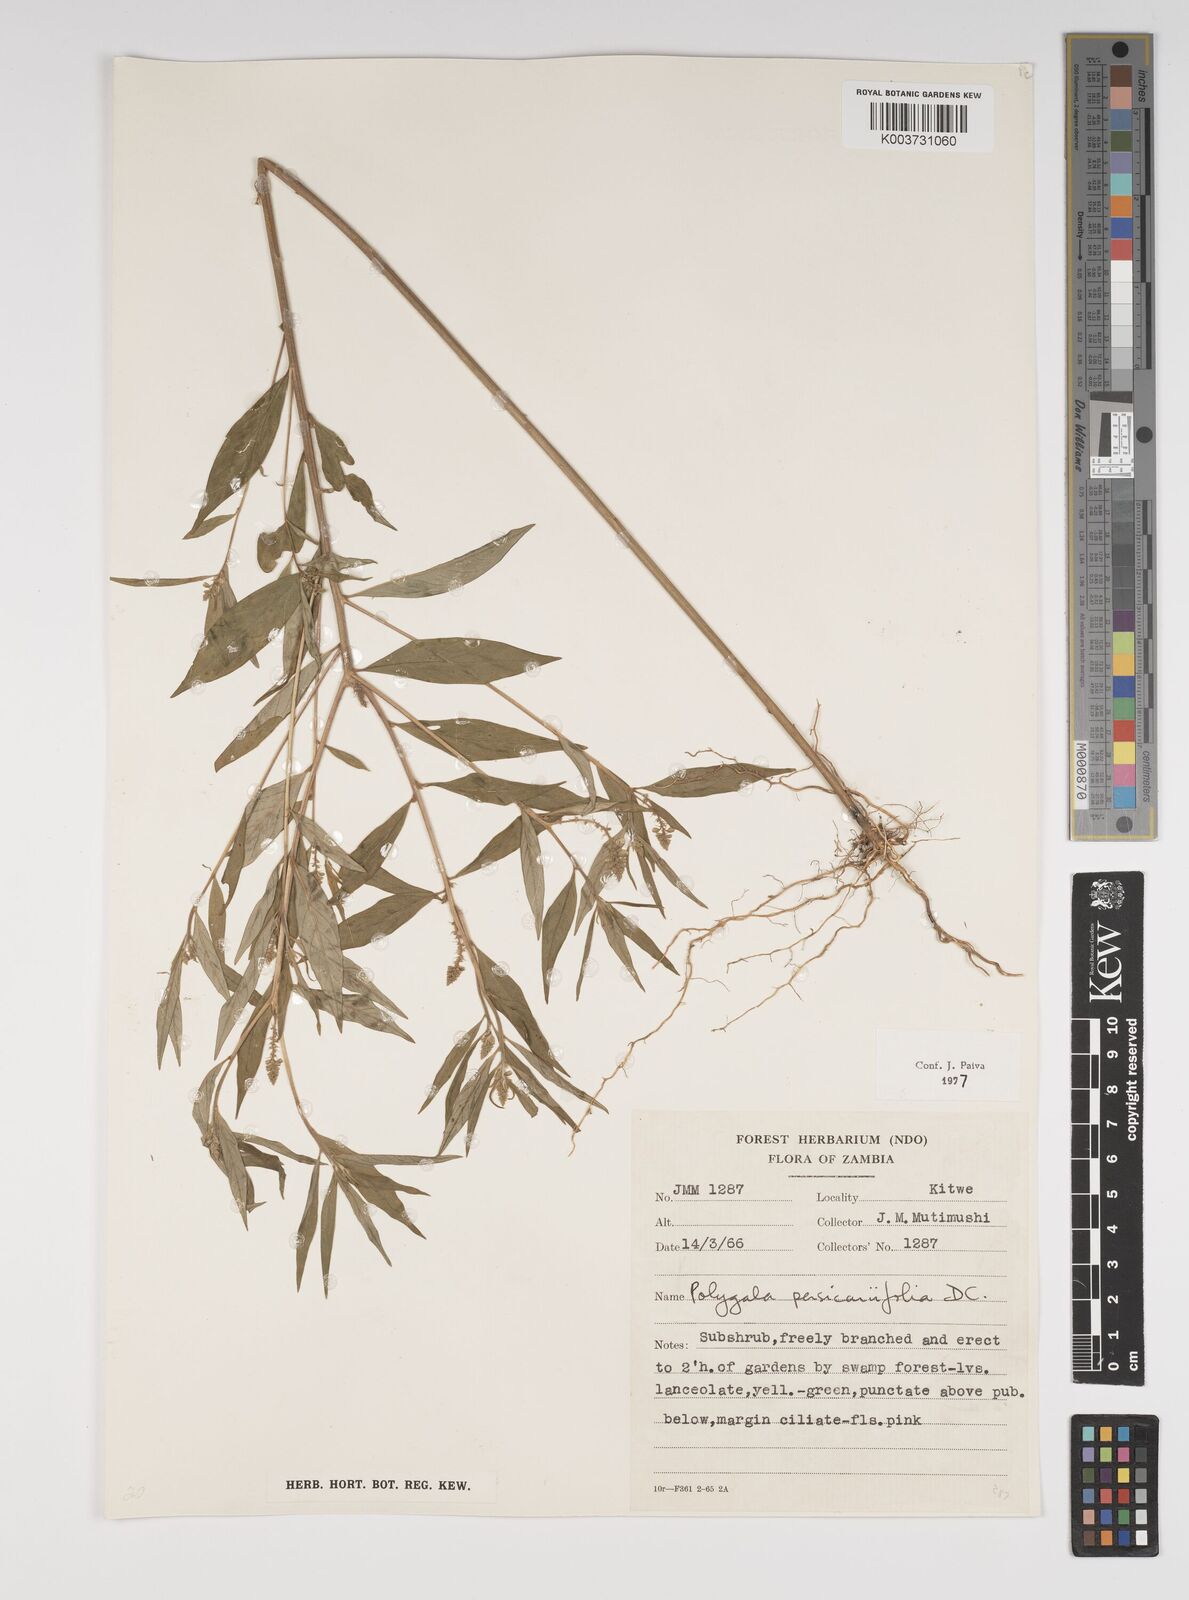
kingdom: Plantae
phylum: Tracheophyta
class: Magnoliopsida
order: Fabales
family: Polygalaceae
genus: Polygala
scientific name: Polygala persicariifolia
